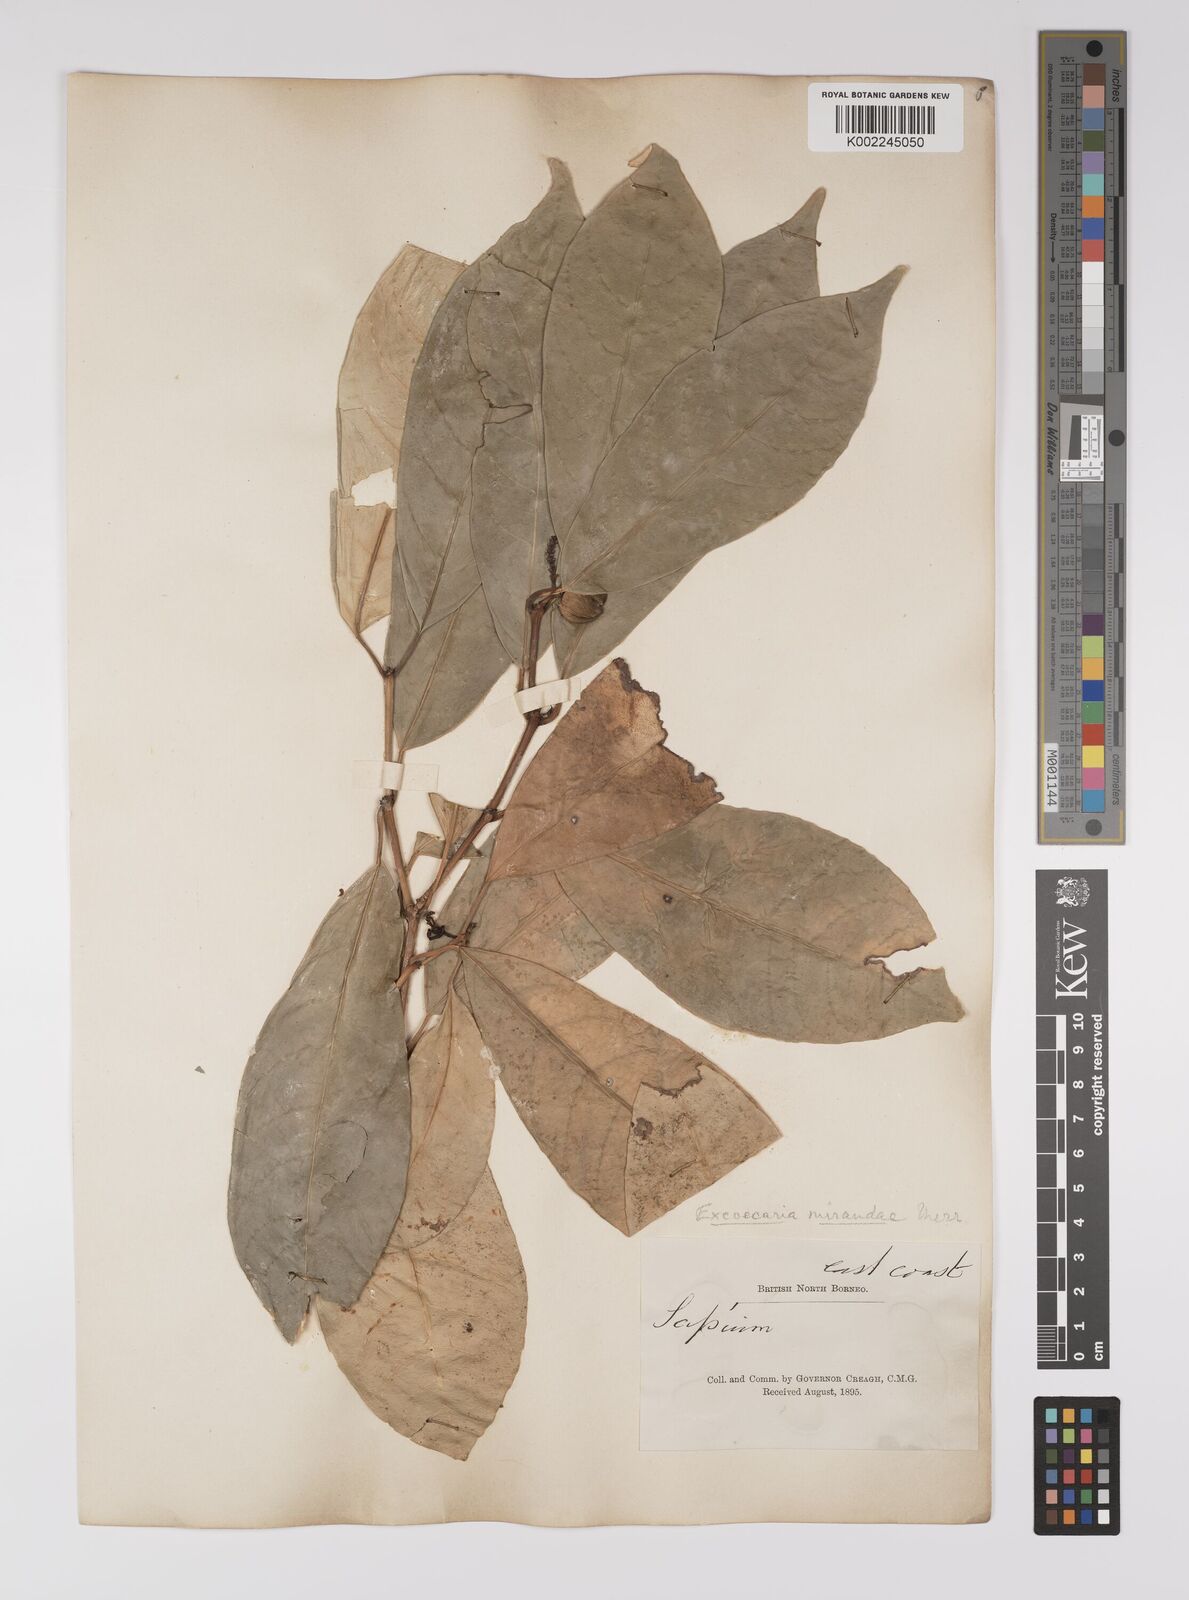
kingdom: Plantae
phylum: Tracheophyta
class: Magnoliopsida
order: Malpighiales
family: Euphorbiaceae
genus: Excoecaria
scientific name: Excoecaria borneensis
